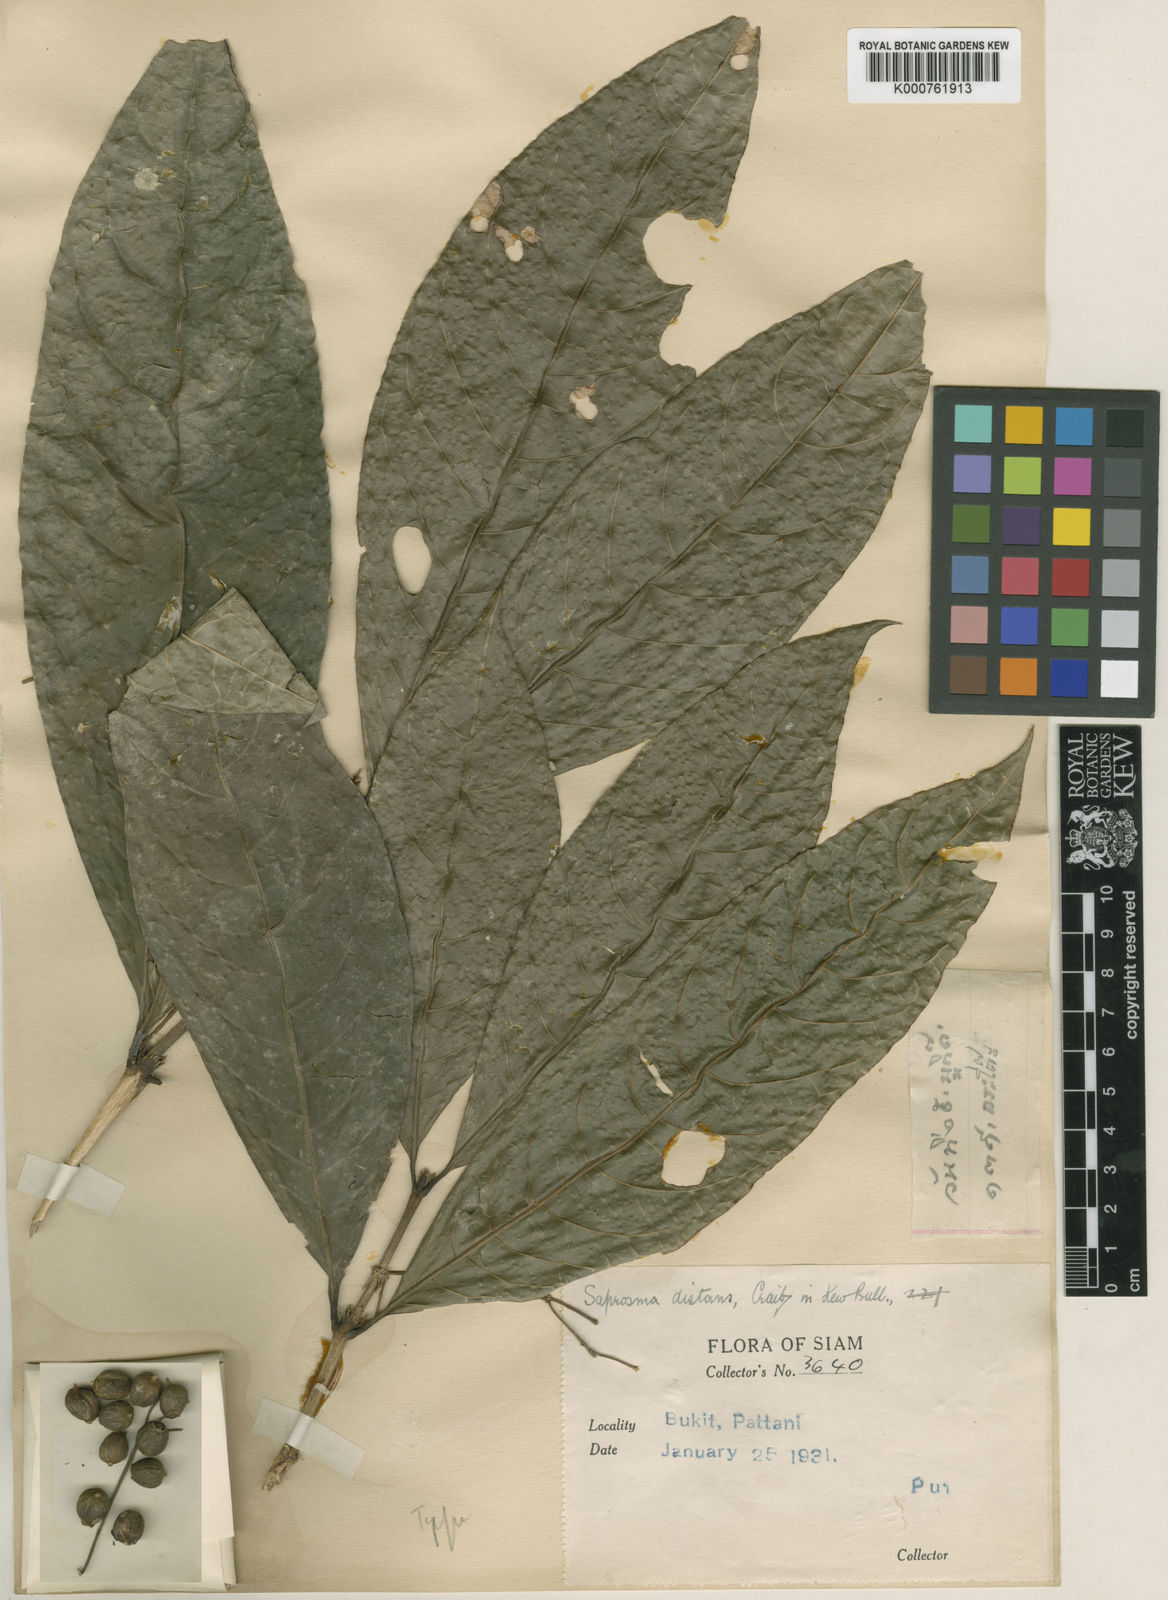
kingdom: Plantae
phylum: Tracheophyta
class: Magnoliopsida
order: Gentianales
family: Rubiaceae
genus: Saprosma
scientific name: Saprosma distans
